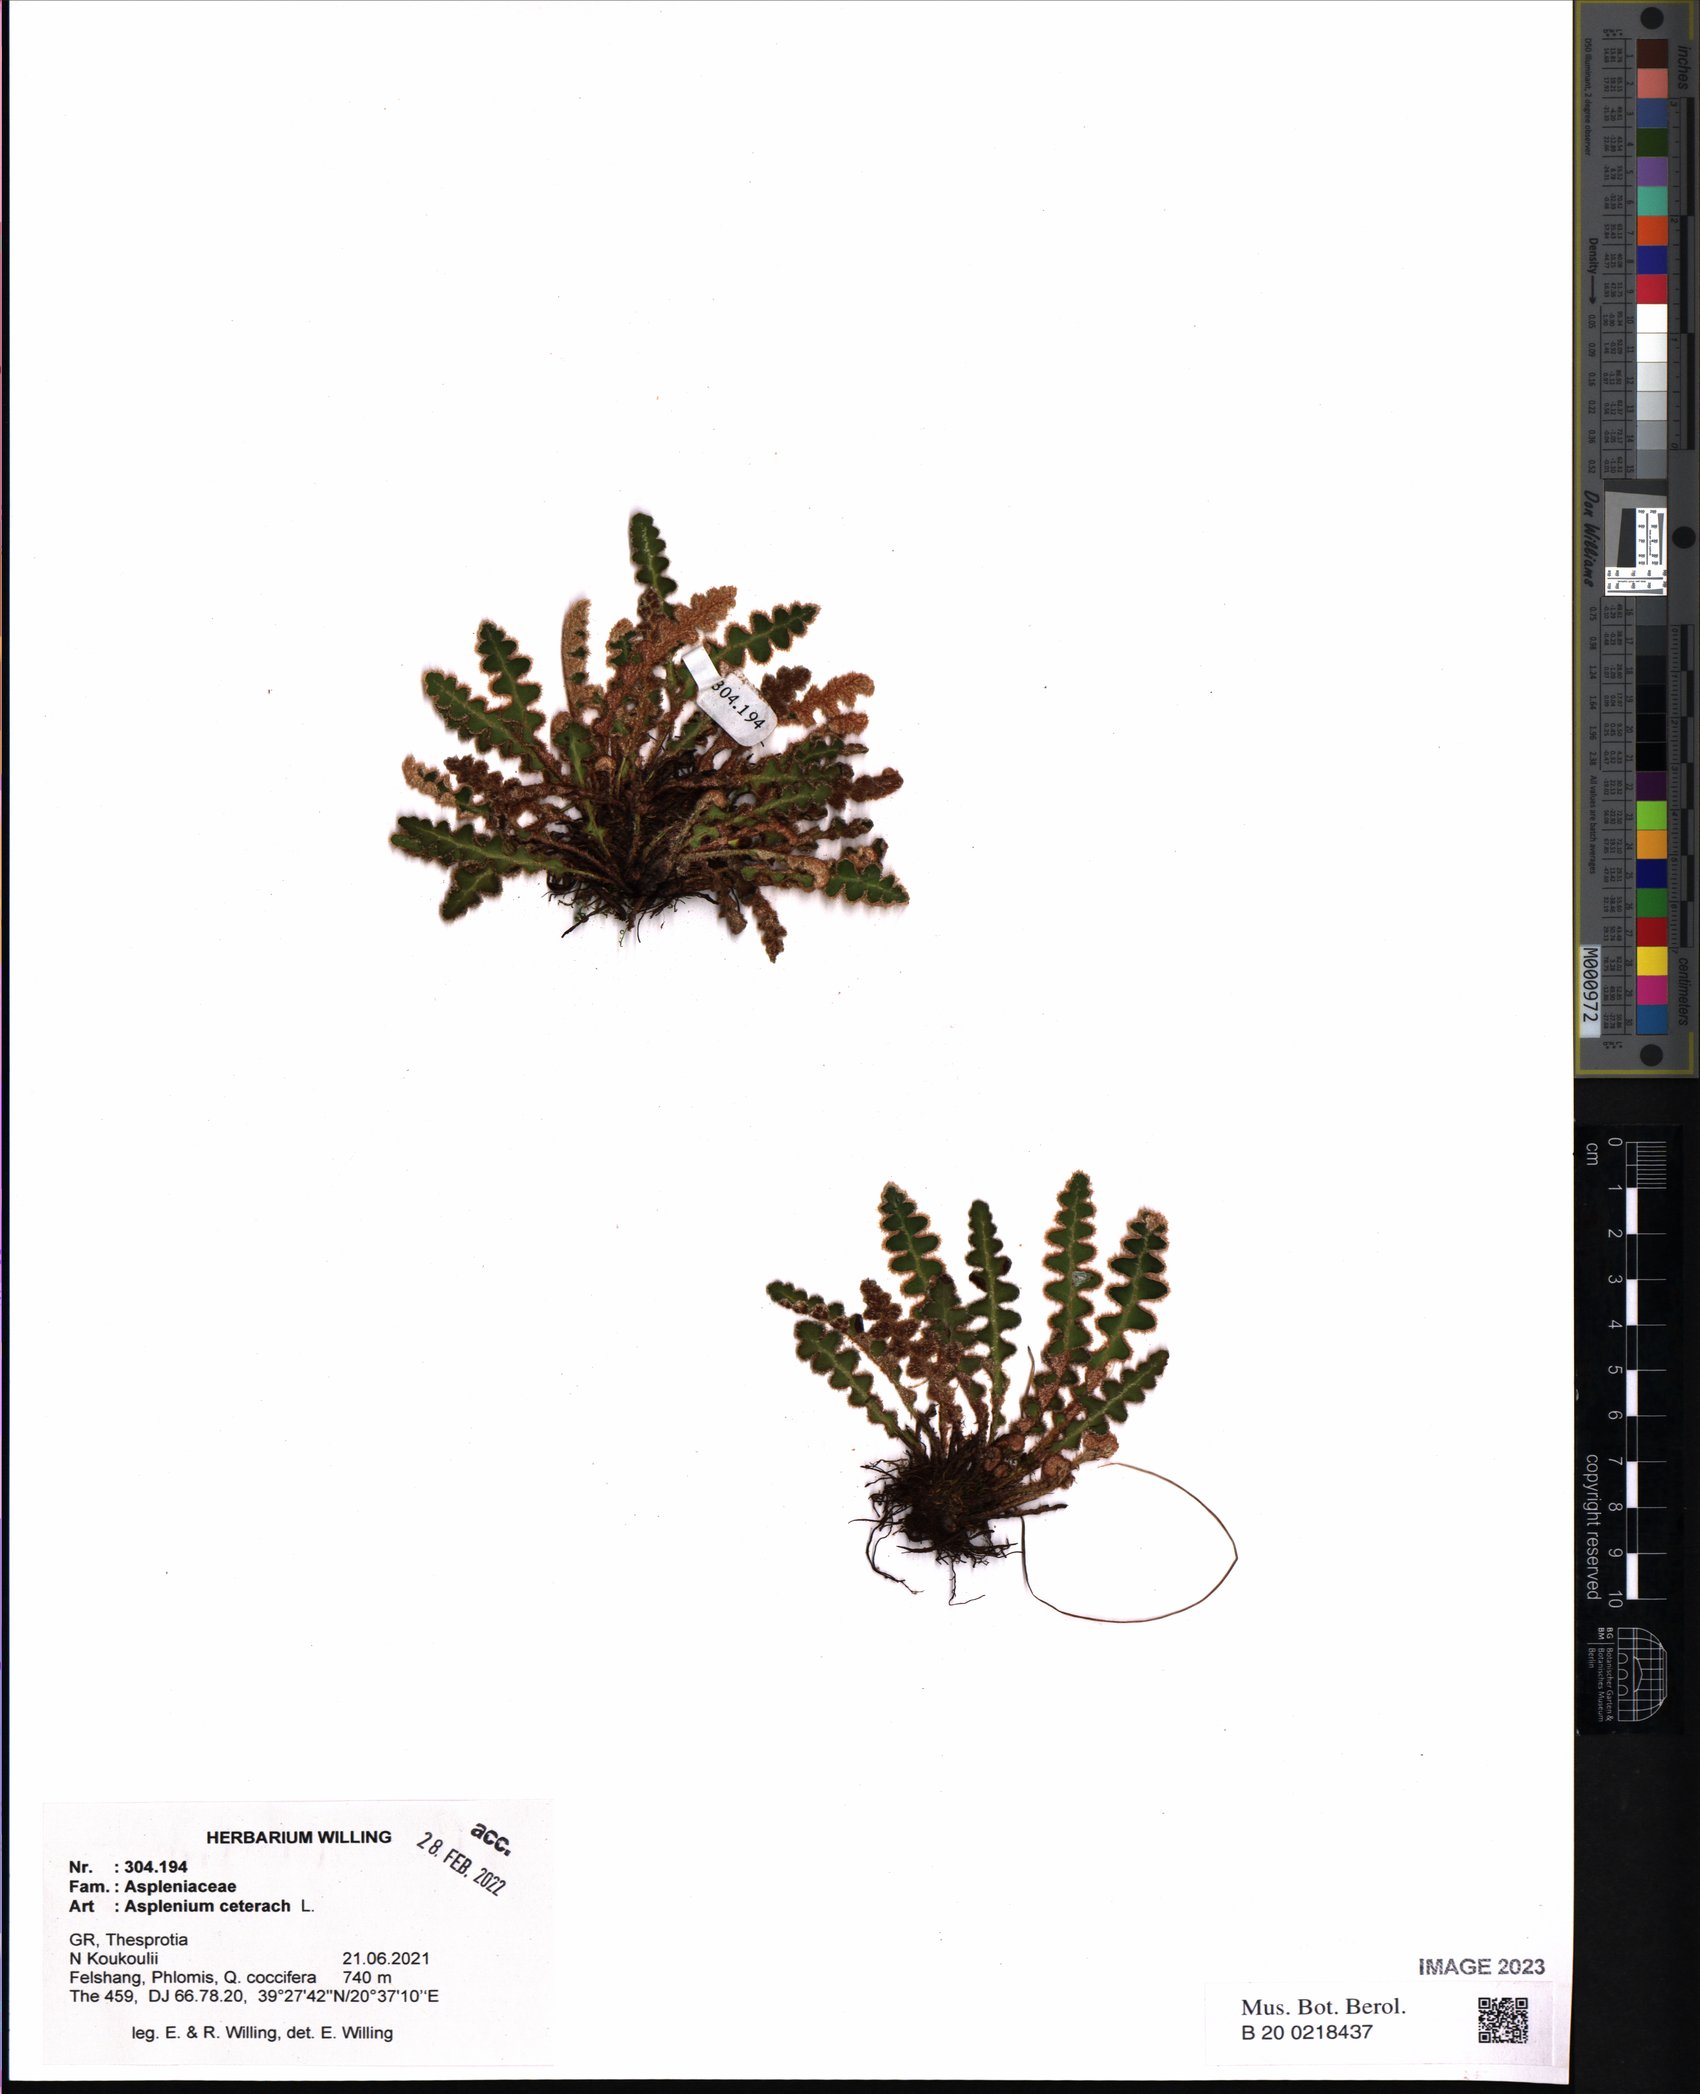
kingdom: Plantae
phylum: Tracheophyta
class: Polypodiopsida
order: Polypodiales
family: Aspleniaceae
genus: Asplenium
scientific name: Asplenium ceterach
